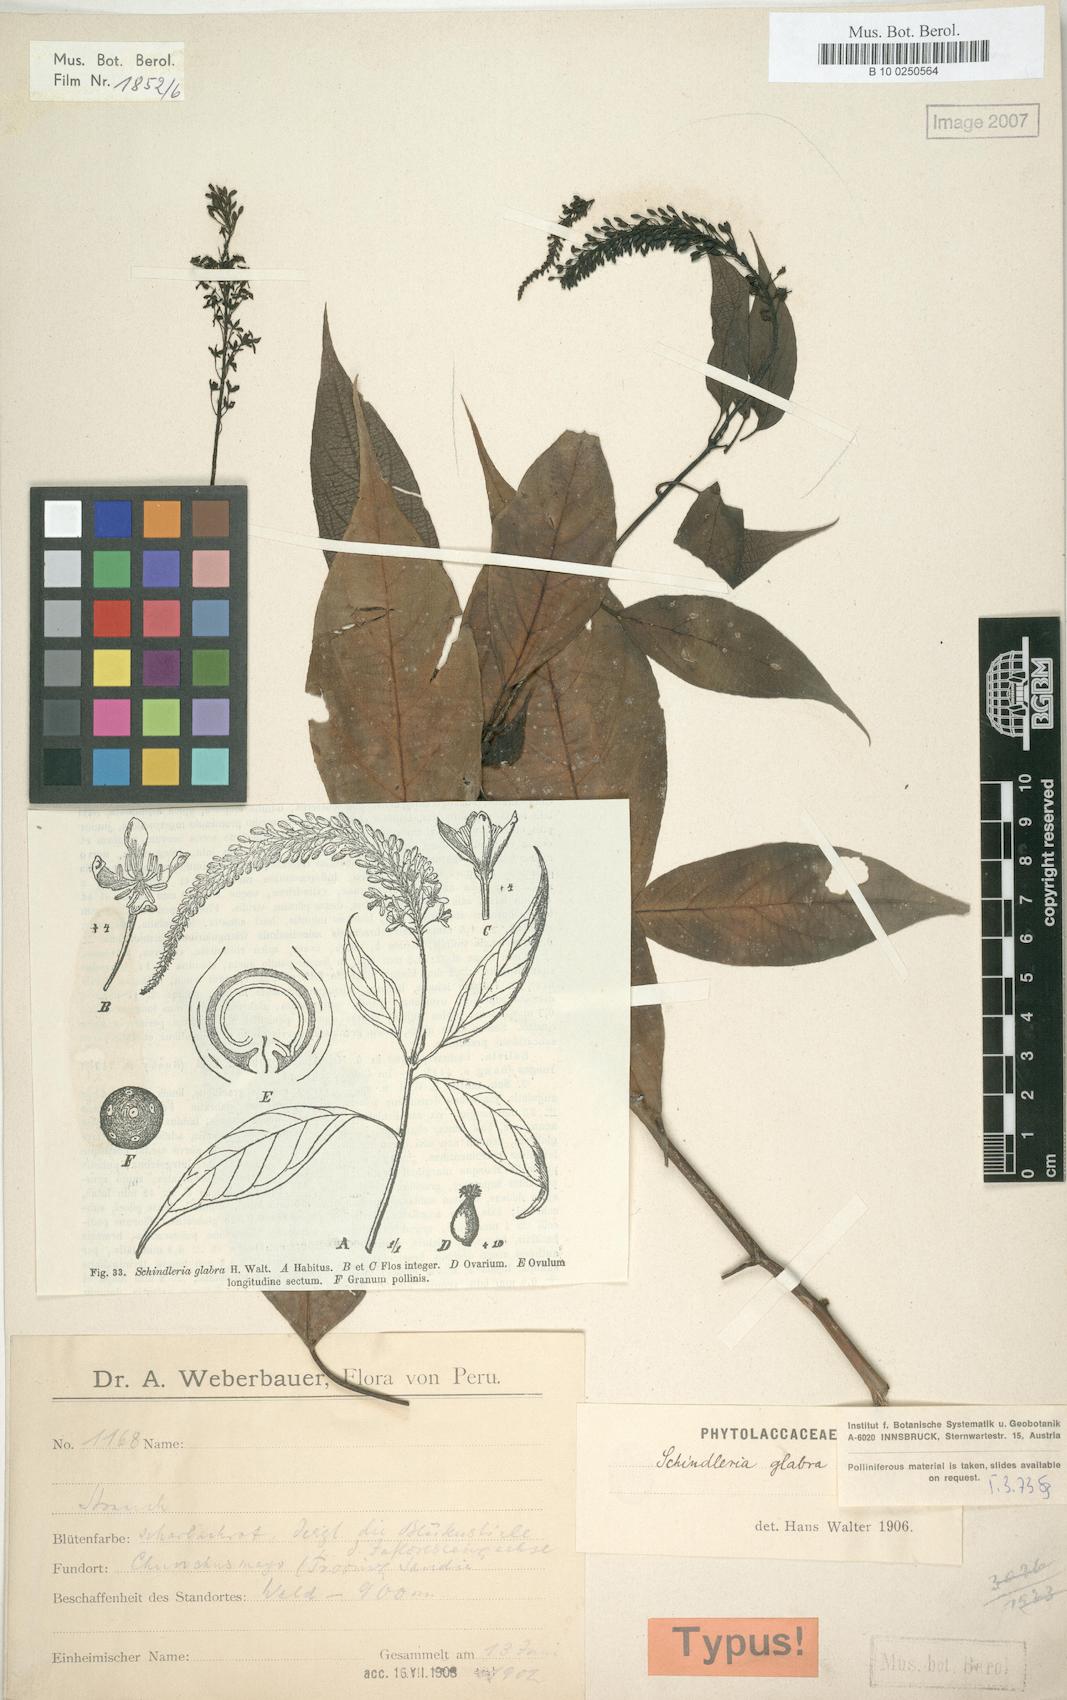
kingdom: Plantae
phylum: Tracheophyta
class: Magnoliopsida
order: Caryophyllales
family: Phytolaccaceae
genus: Schindleria
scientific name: Schindleria racemosa
